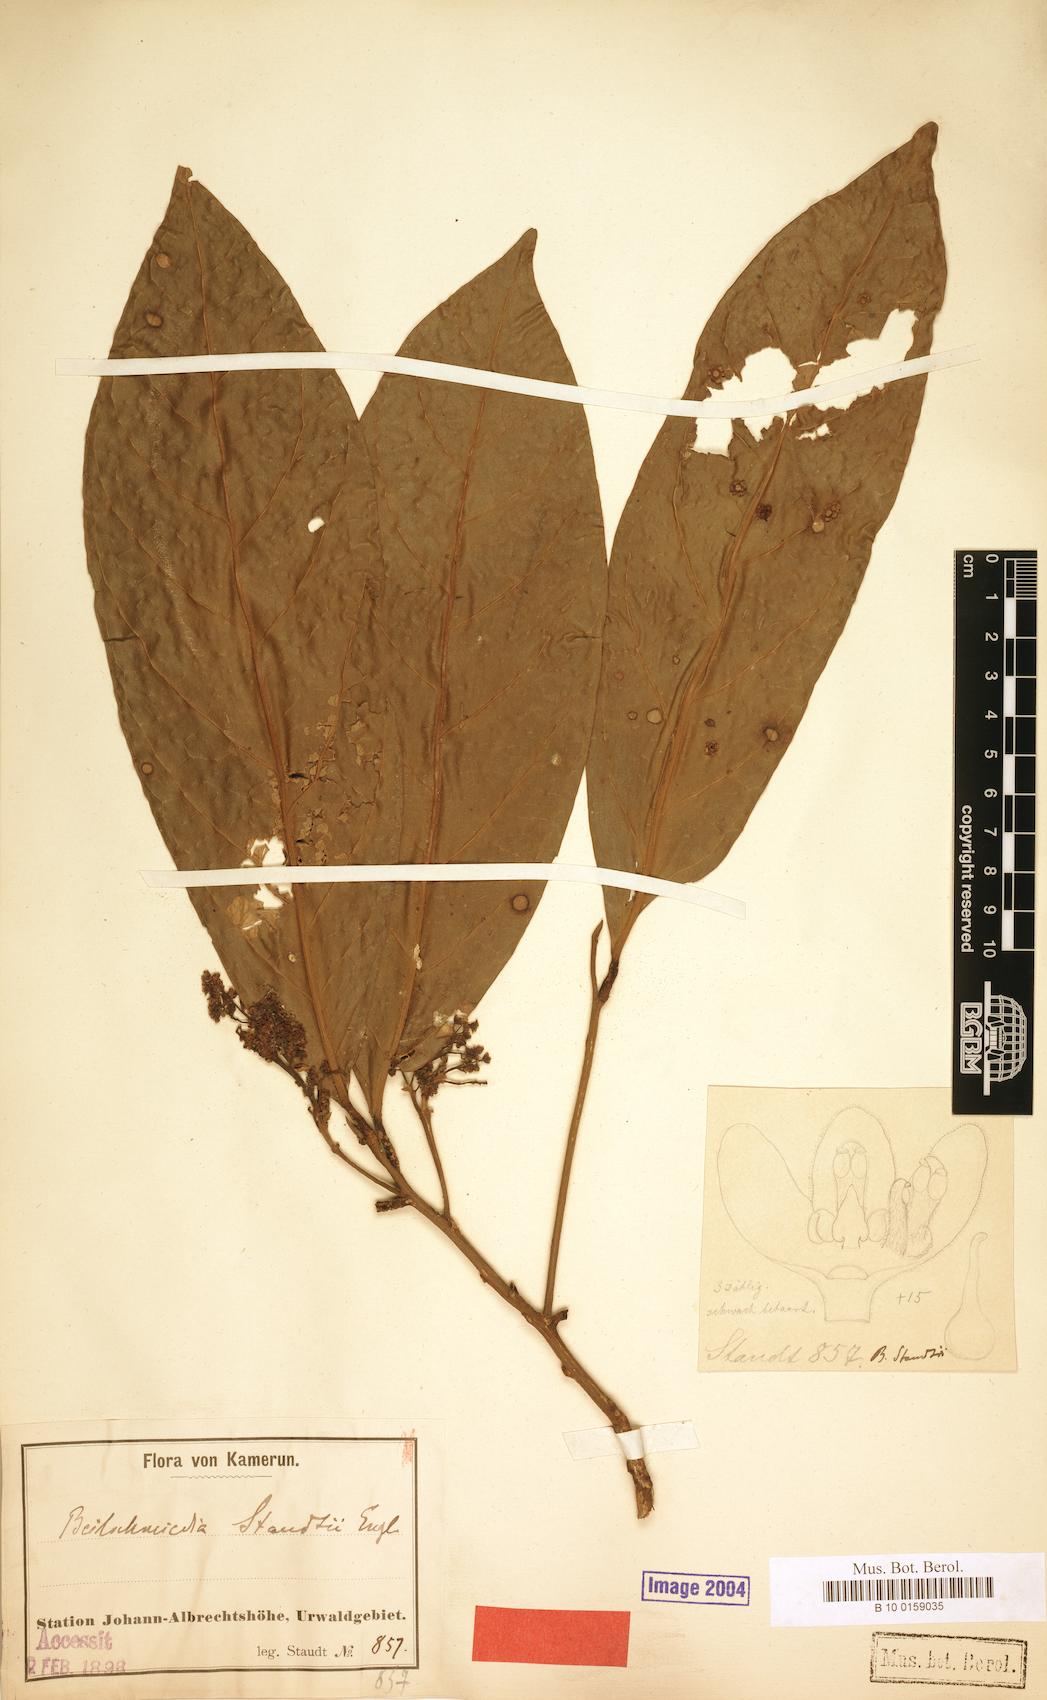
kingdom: Plantae
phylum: Tracheophyta
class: Magnoliopsida
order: Laurales
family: Lauraceae
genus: Beilschmiedia
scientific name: Beilschmiedia staudtii
